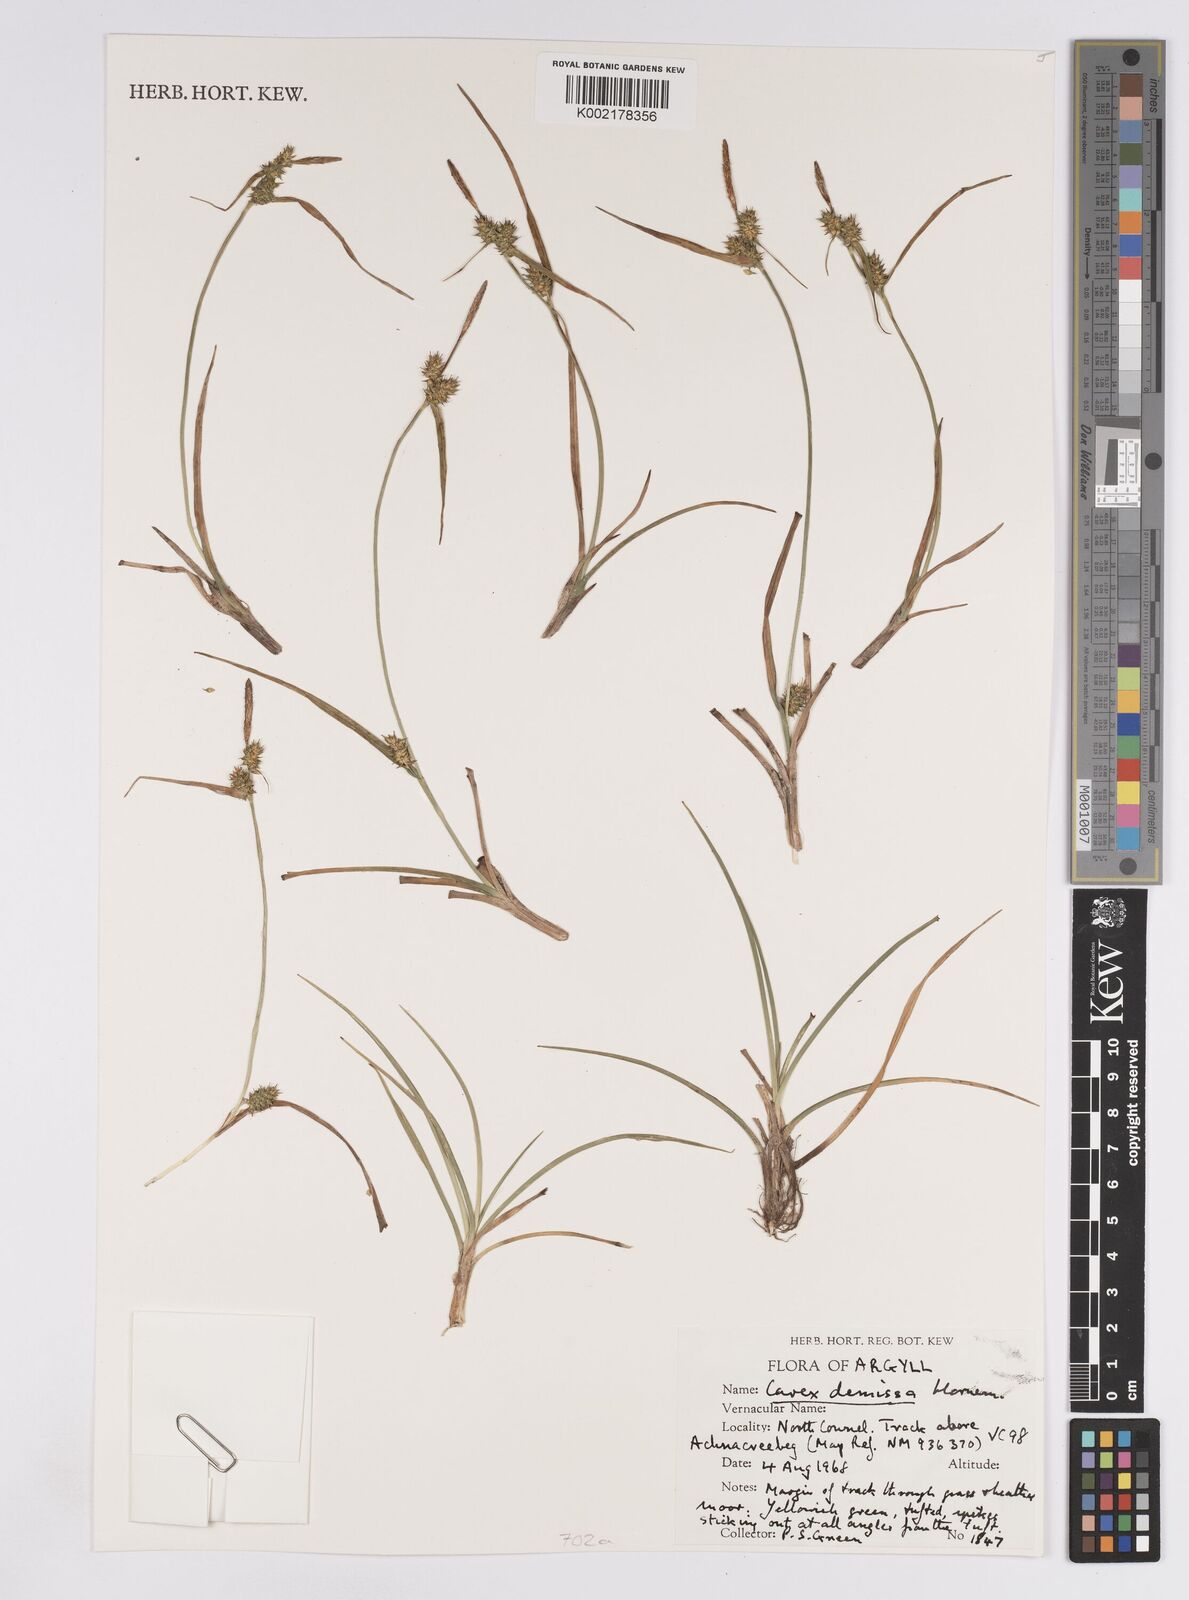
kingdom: Plantae
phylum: Tracheophyta
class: Liliopsida
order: Poales
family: Cyperaceae
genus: Carex
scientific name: Carex demissa
